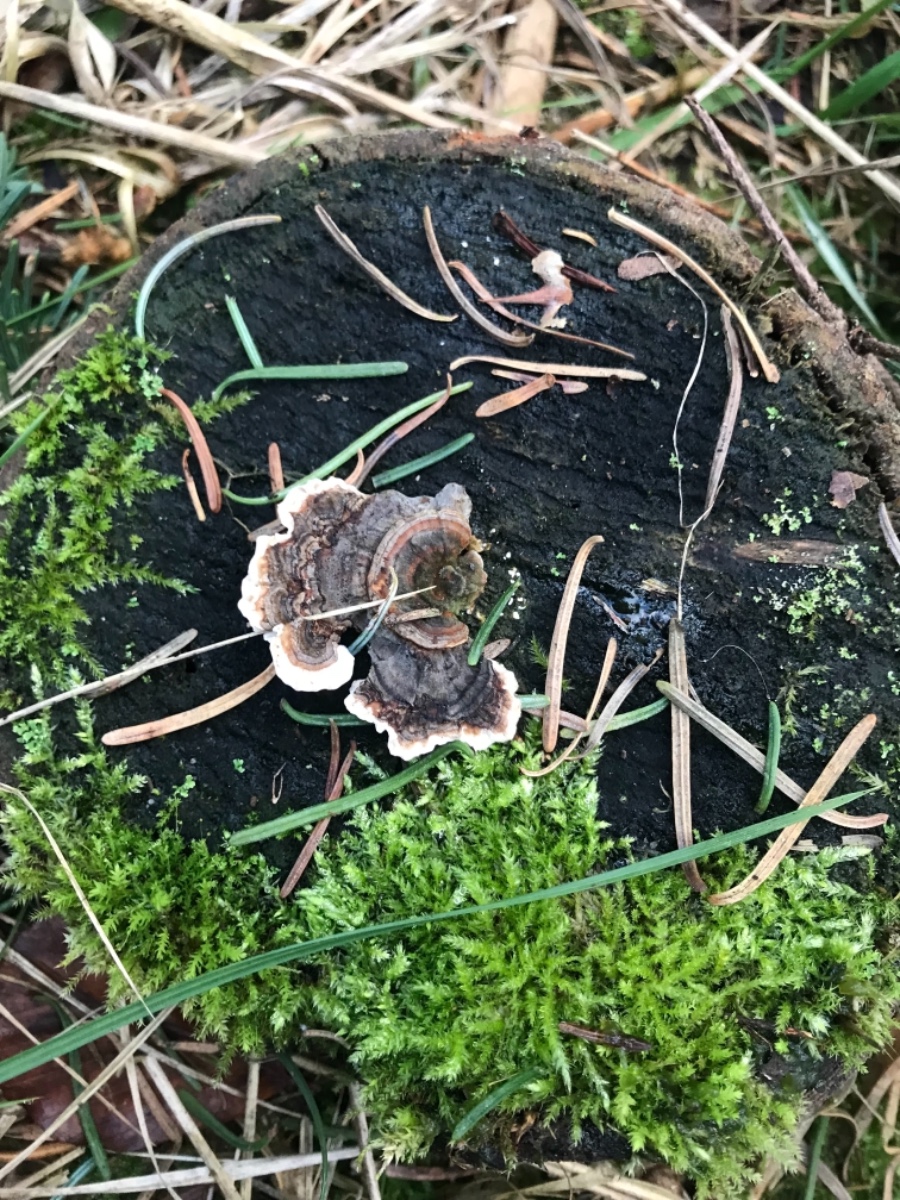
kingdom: Fungi
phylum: Basidiomycota
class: Agaricomycetes
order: Polyporales
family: Polyporaceae
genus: Trametes
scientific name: Trametes versicolor
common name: broget læderporesvamp
